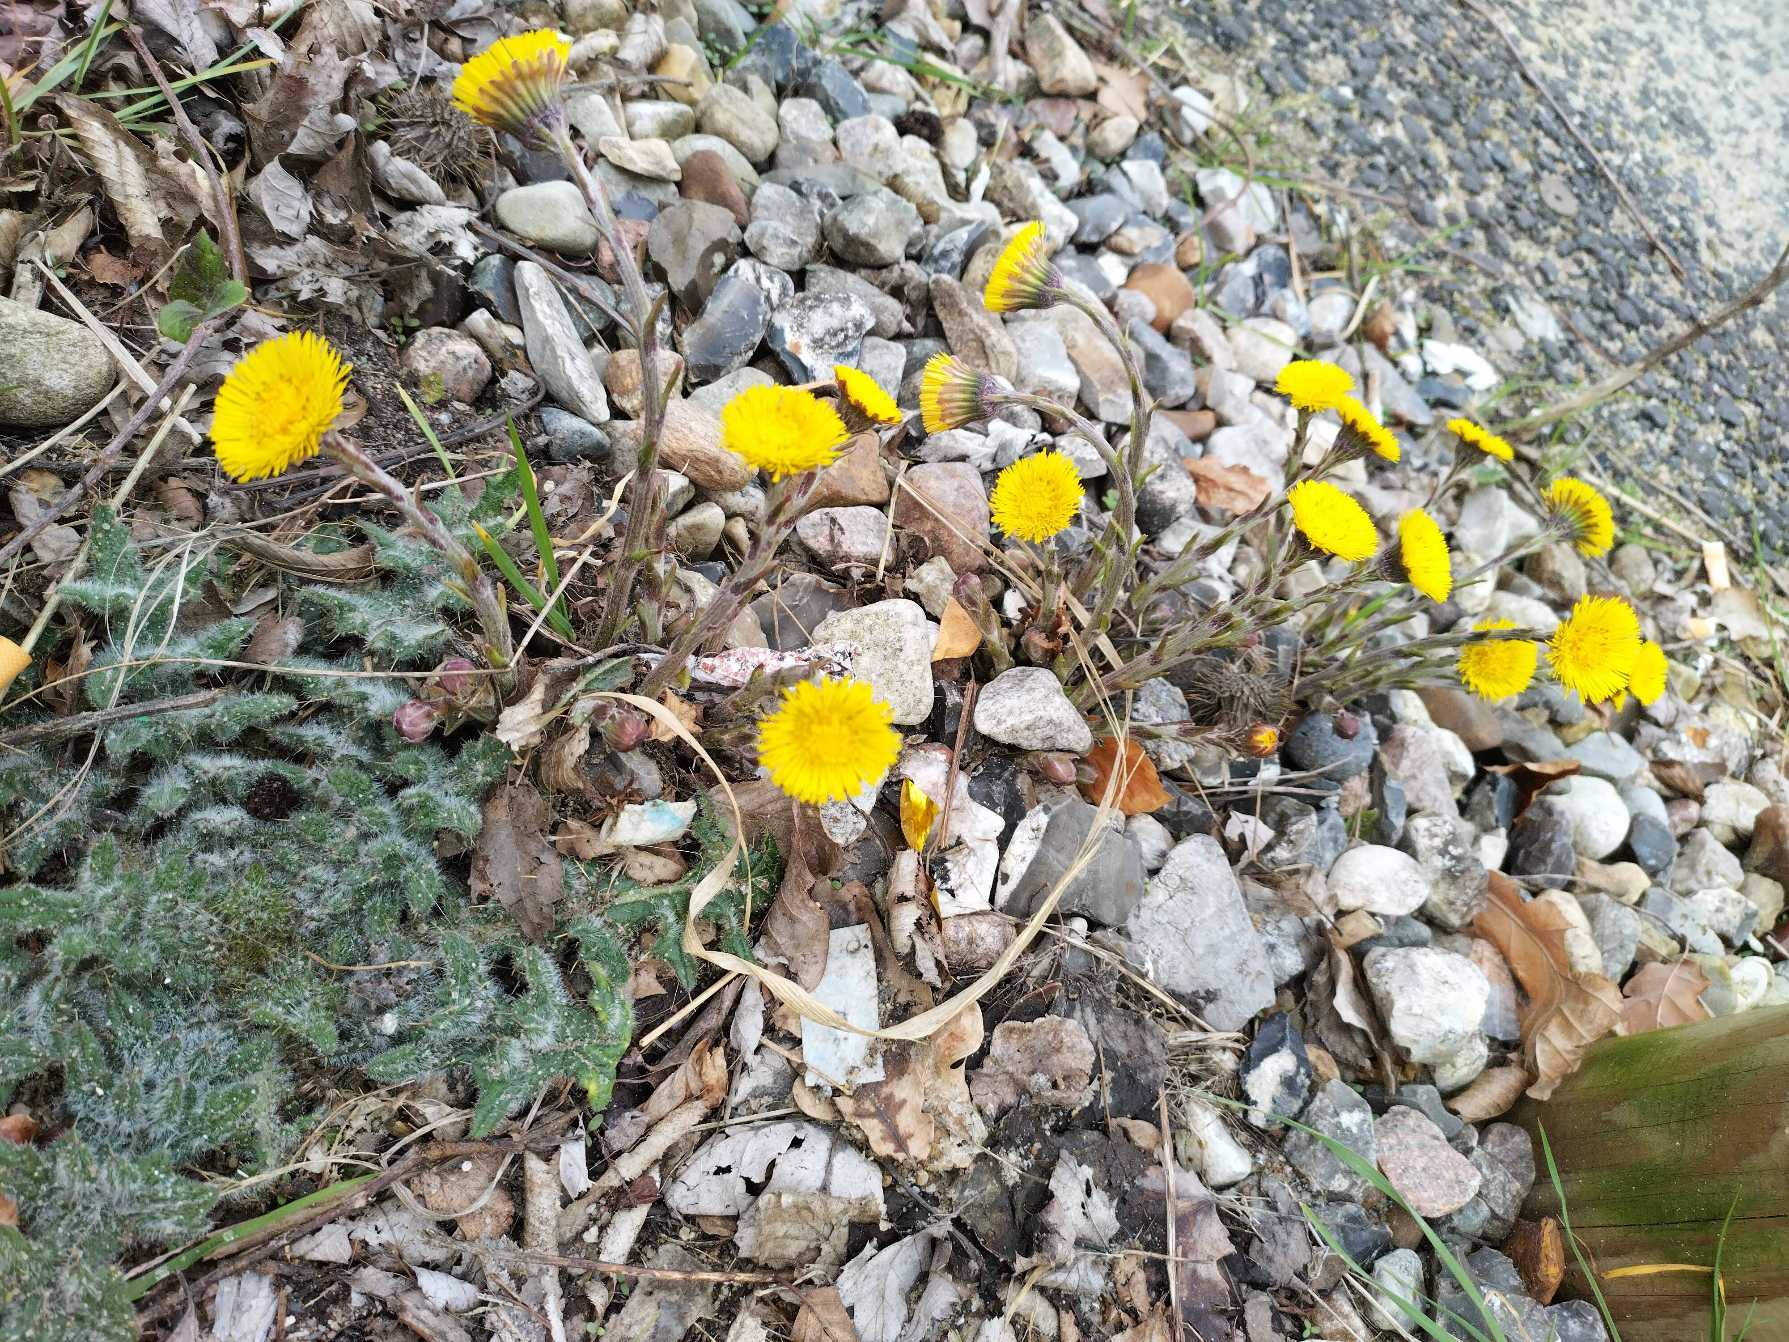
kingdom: Plantae
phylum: Tracheophyta
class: Magnoliopsida
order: Asterales
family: Asteraceae
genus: Tussilago
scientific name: Tussilago farfara
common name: Følfod
